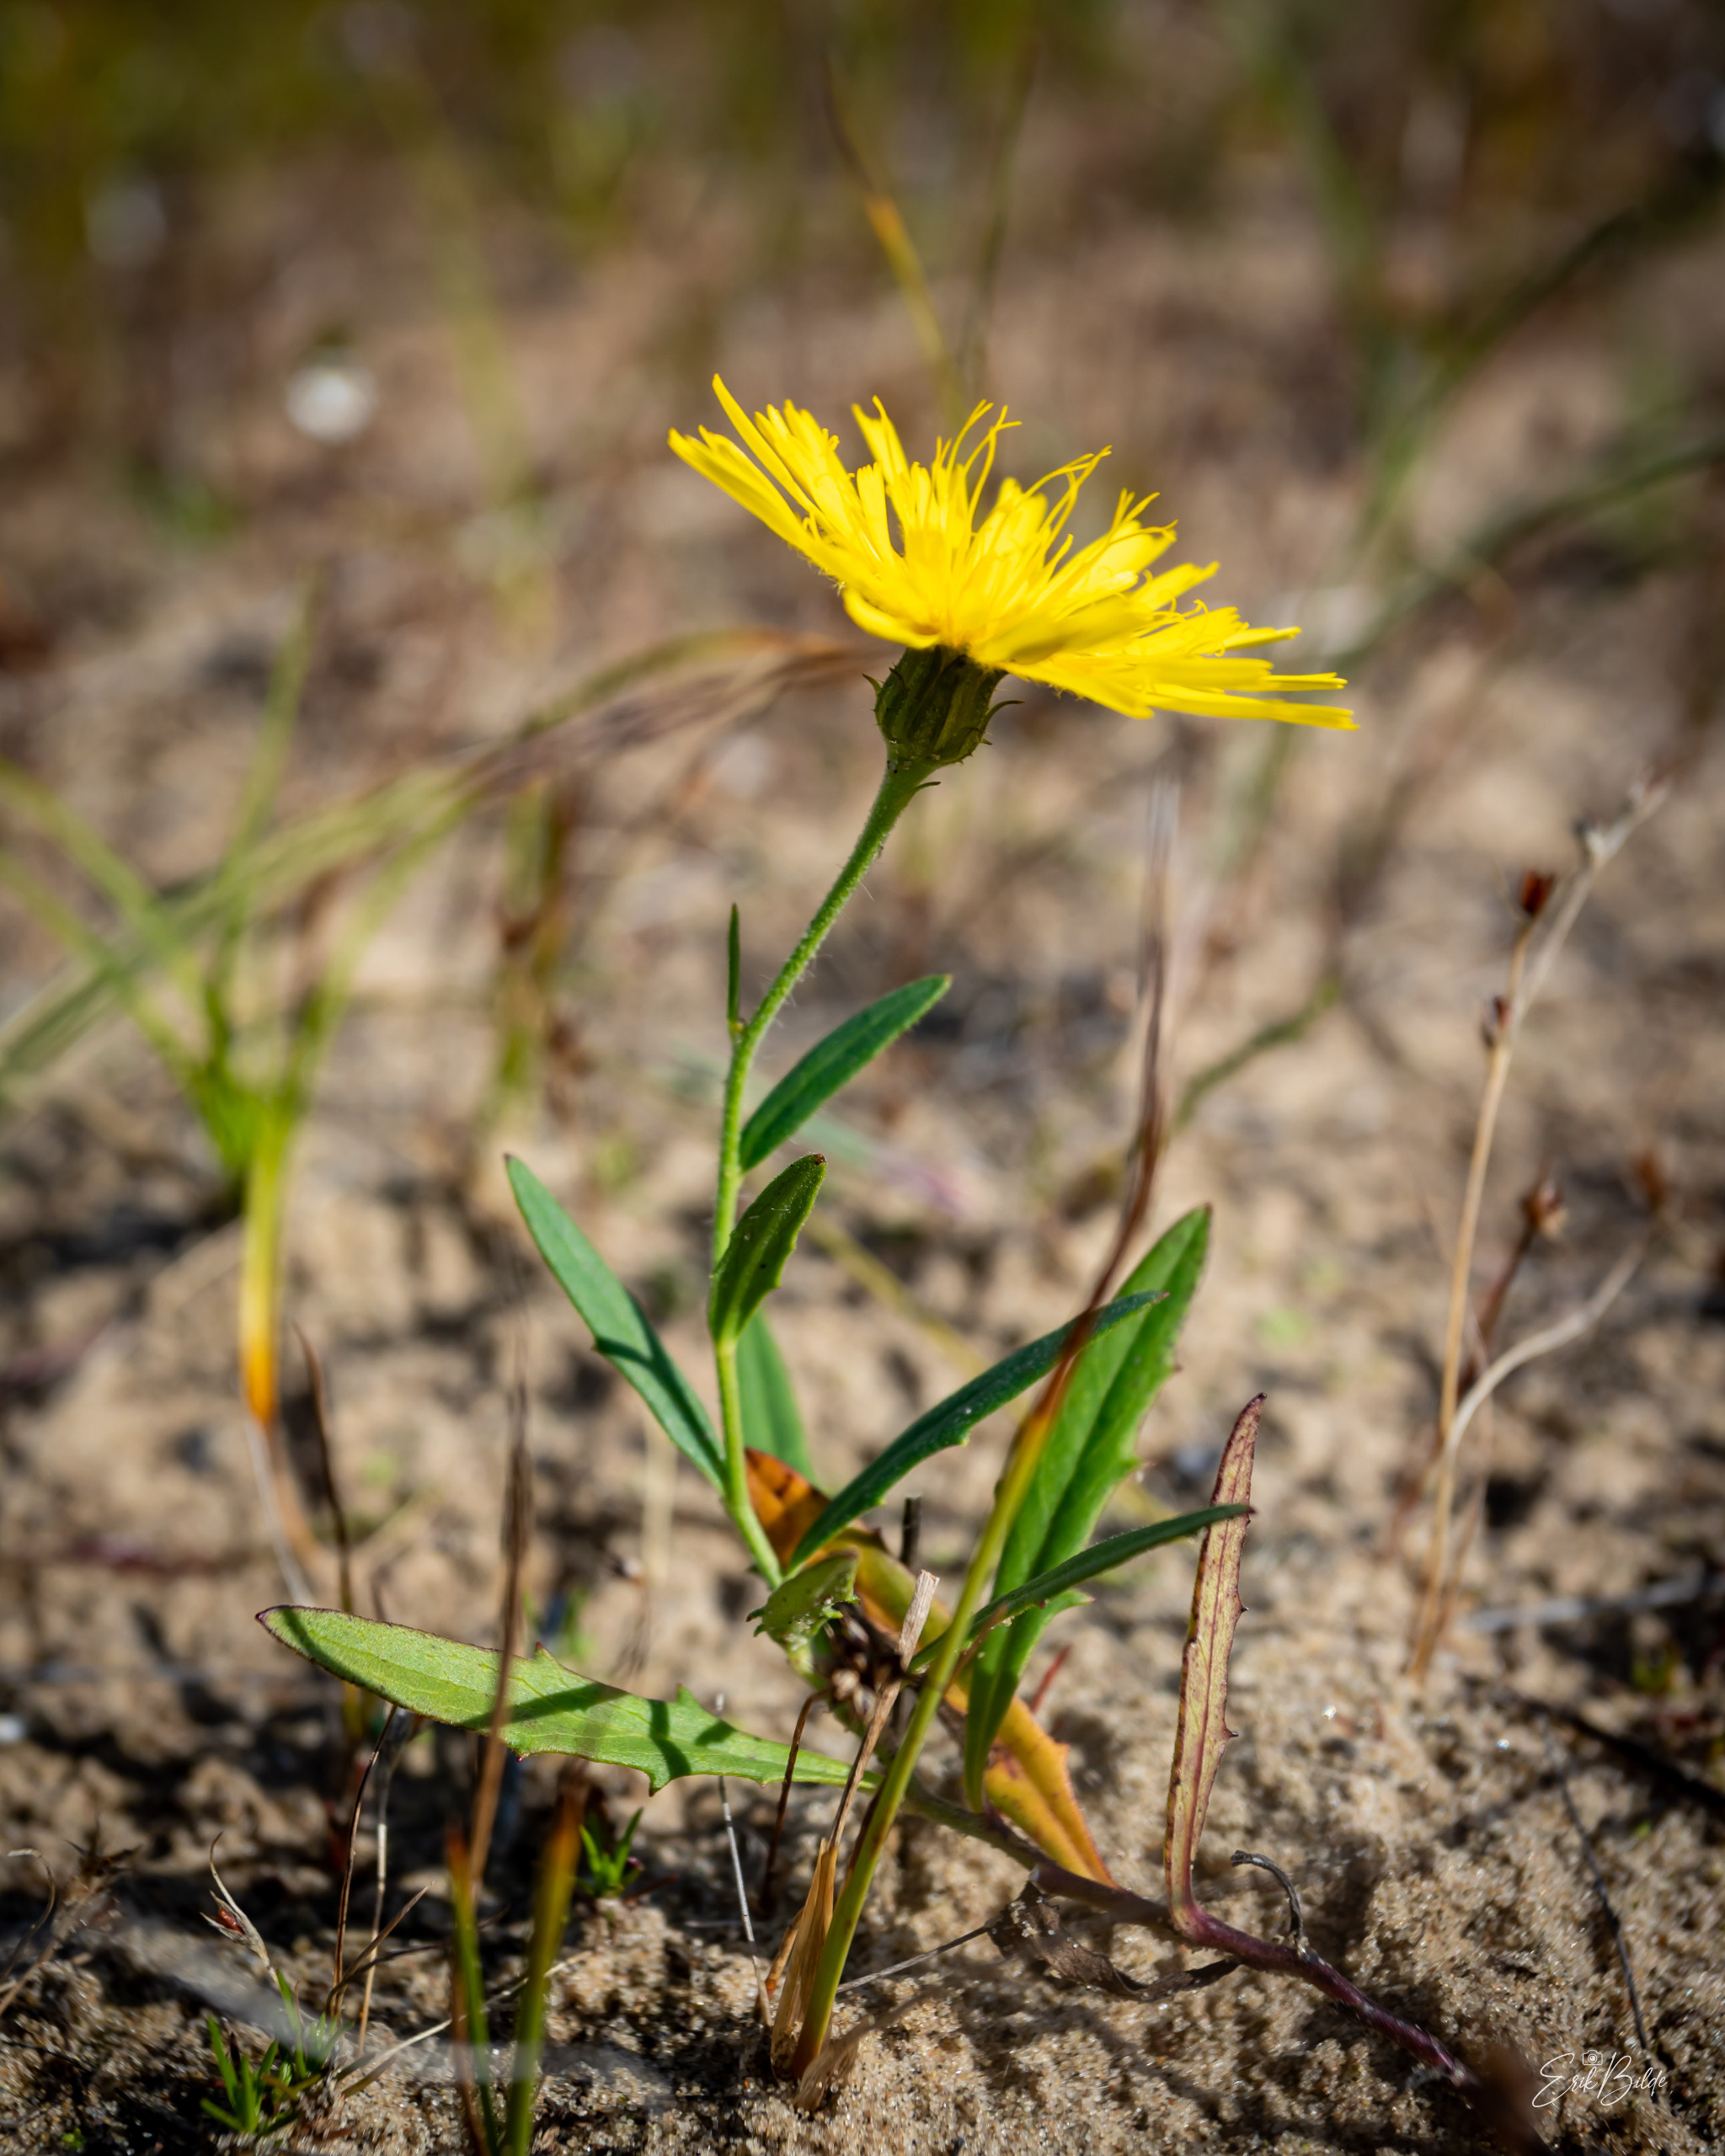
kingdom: Plantae
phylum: Tracheophyta
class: Magnoliopsida
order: Asterales
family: Asteraceae
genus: Hieracium
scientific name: Hieracium umbellatum
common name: Smalbladet høgeurt
